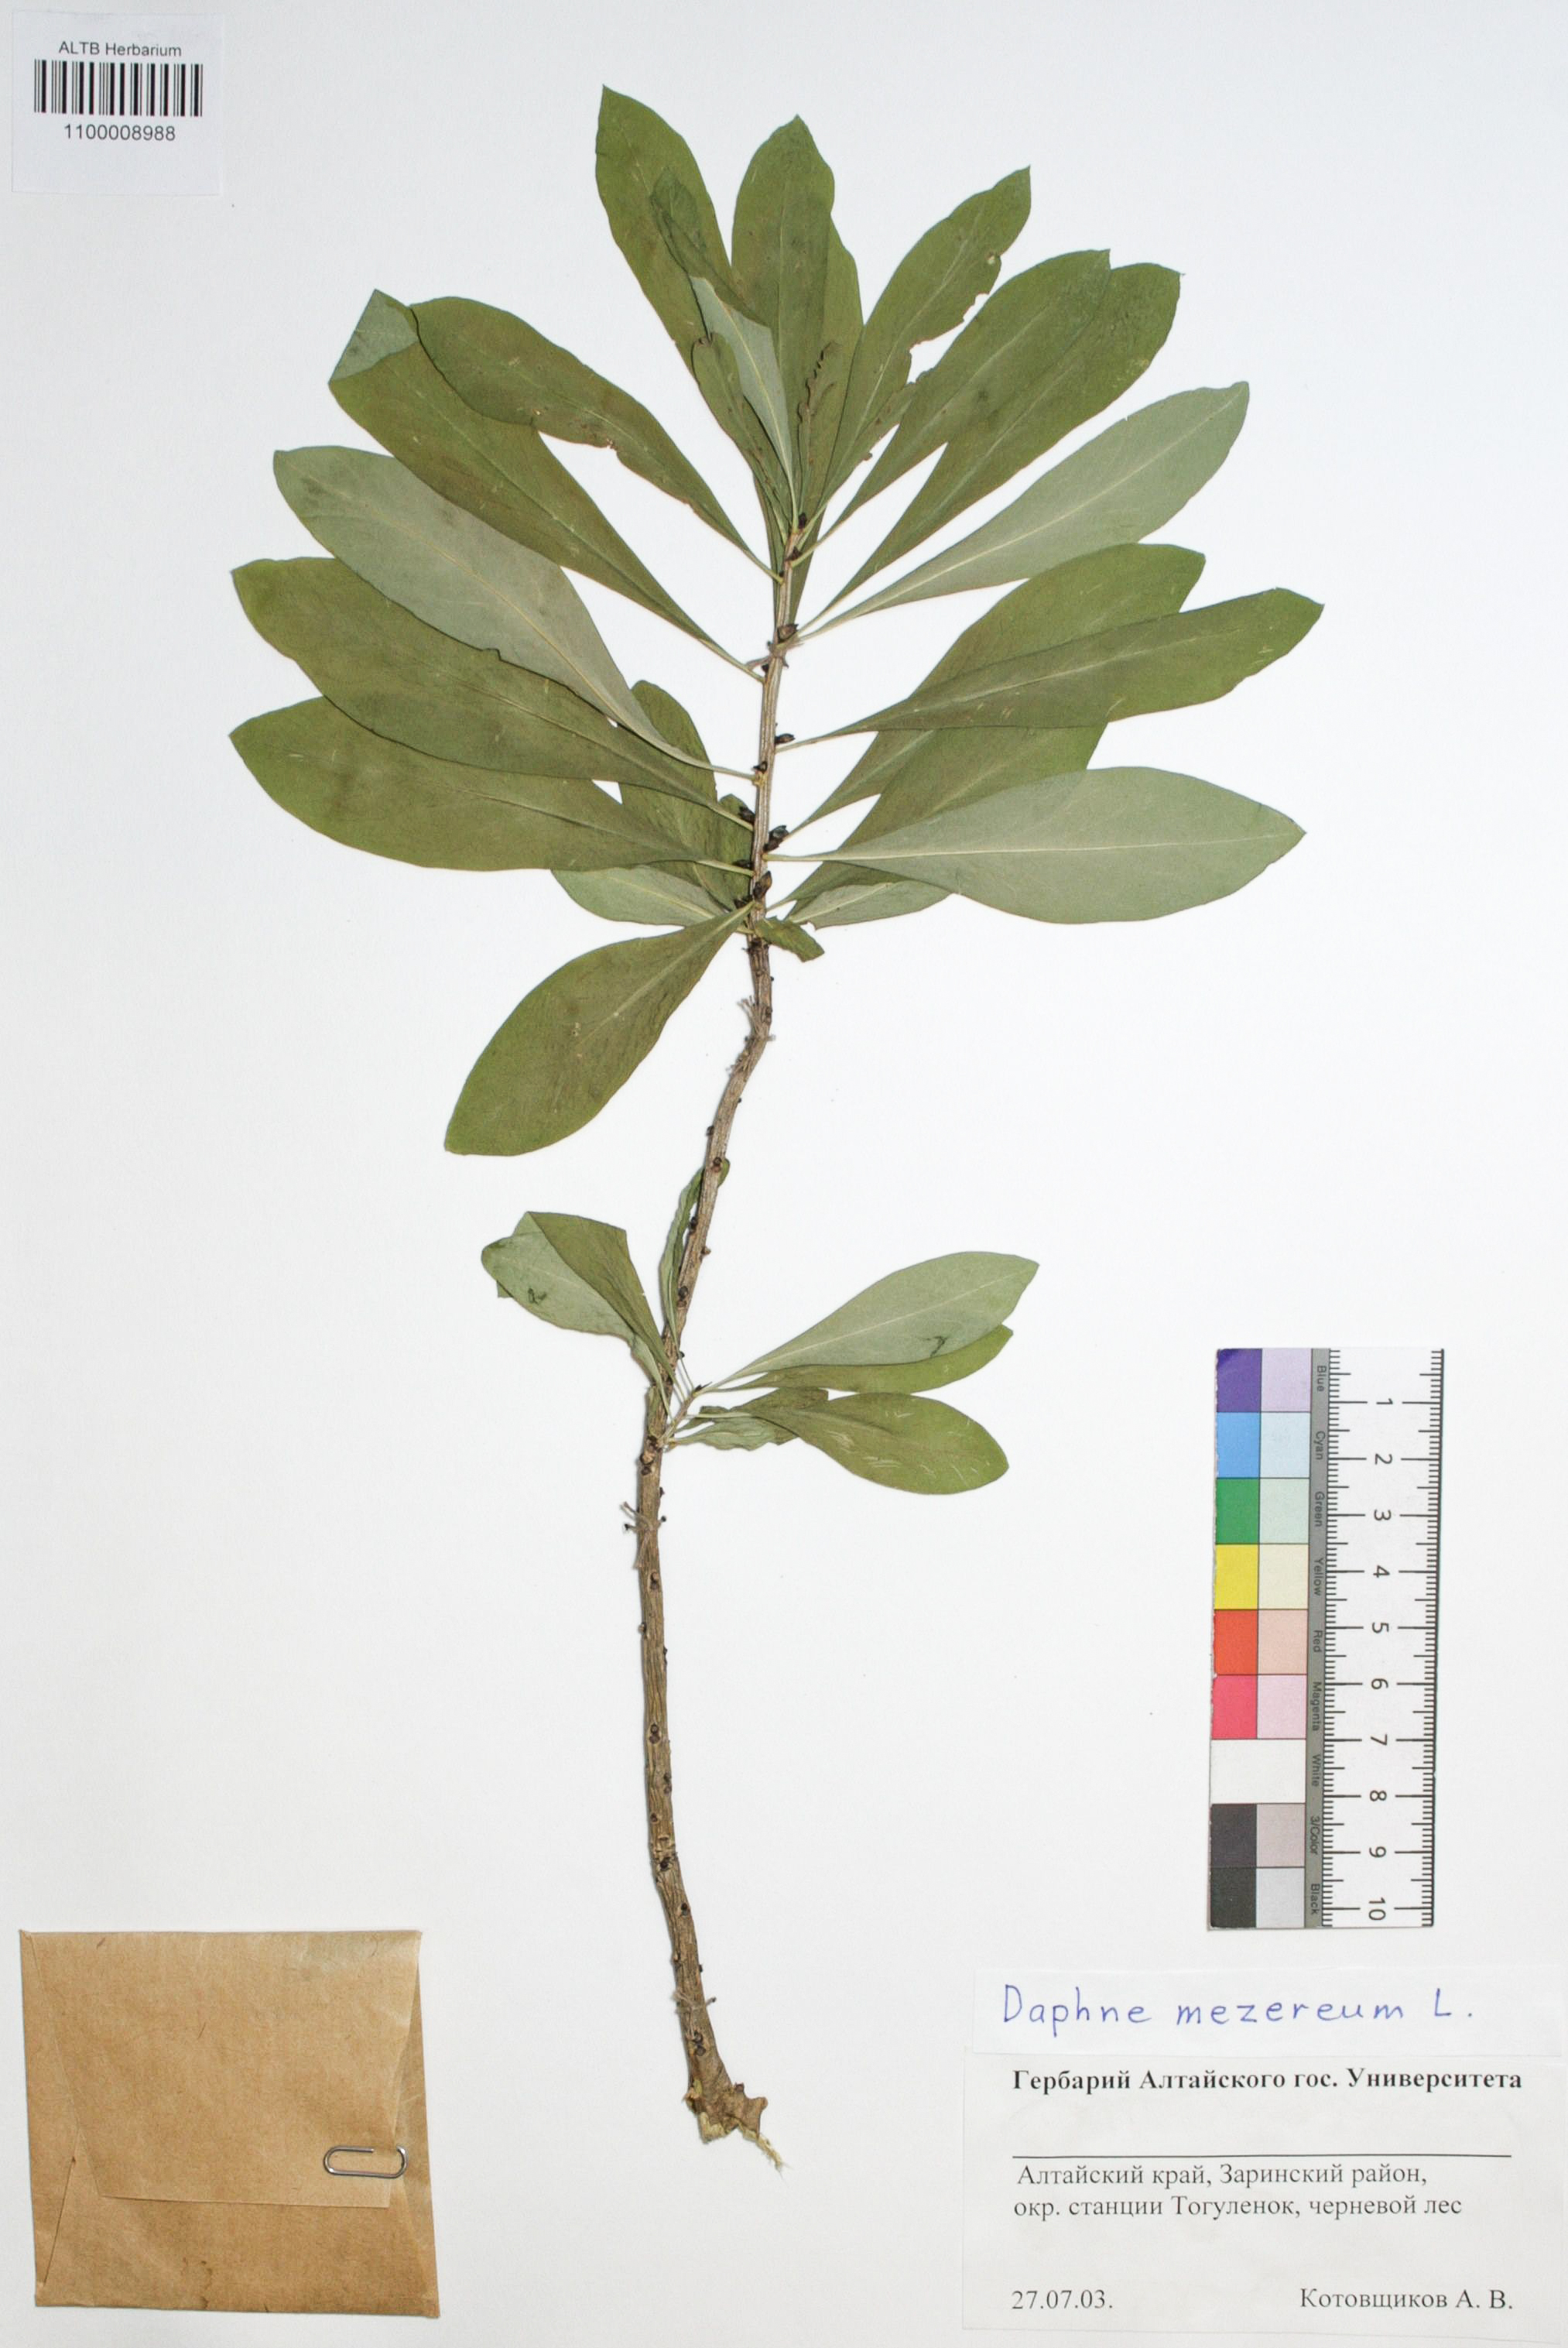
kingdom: Plantae
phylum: Tracheophyta
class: Magnoliopsida
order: Malvales
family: Thymelaeaceae
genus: Daphne
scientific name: Daphne mezereum
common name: Mezereon
